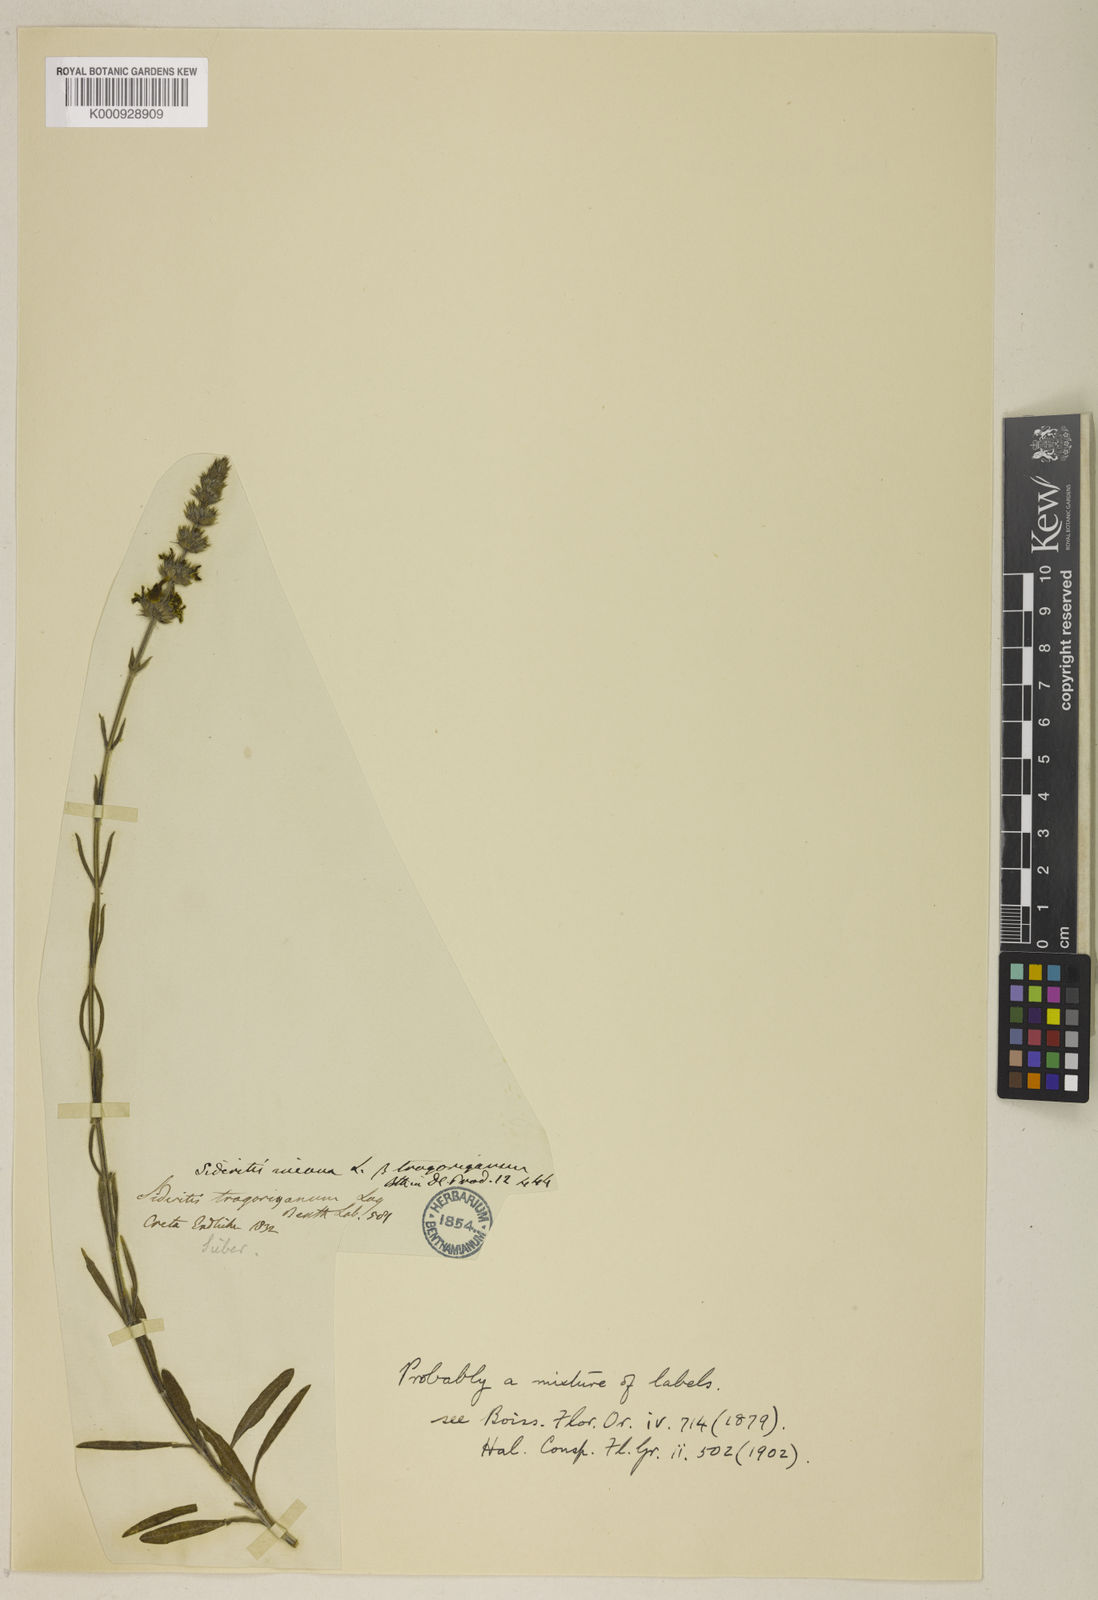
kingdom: Plantae
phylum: Tracheophyta
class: Magnoliopsida
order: Lamiales
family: Lamiaceae
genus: Sideritis
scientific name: Sideritis incana
